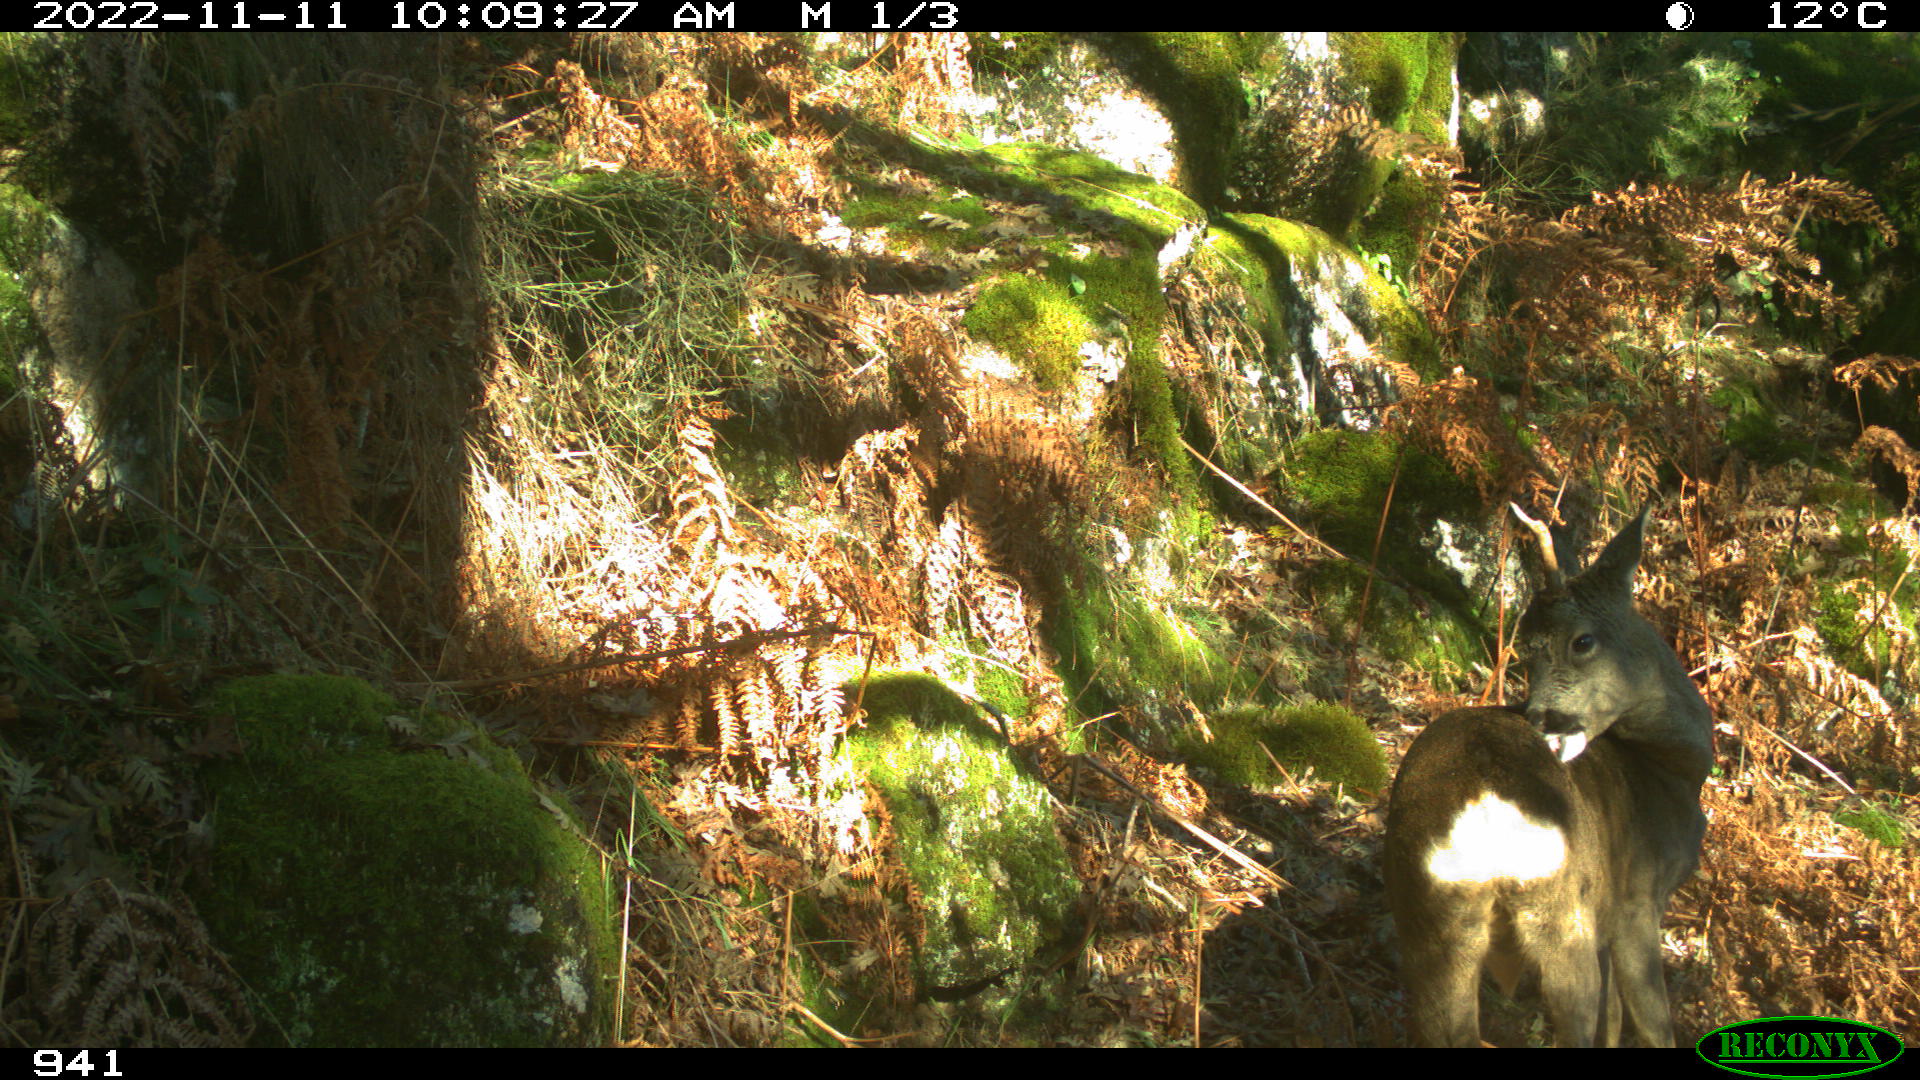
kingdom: Animalia
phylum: Chordata
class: Mammalia
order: Artiodactyla
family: Cervidae
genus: Capreolus
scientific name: Capreolus capreolus
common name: Western roe deer
